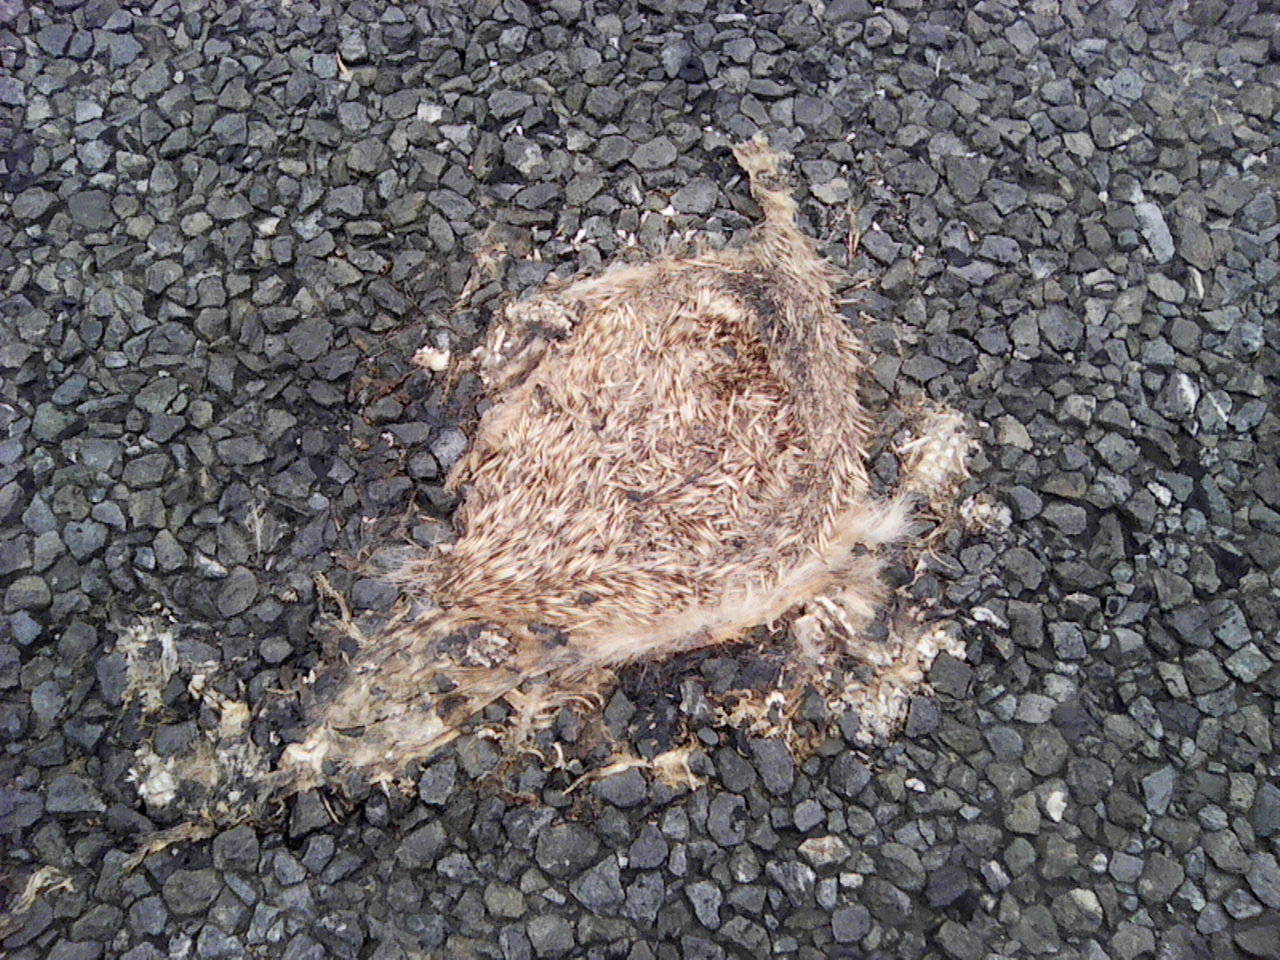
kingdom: Animalia
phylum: Chordata
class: Mammalia
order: Erinaceomorpha
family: Erinaceidae
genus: Erinaceus
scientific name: Erinaceus
